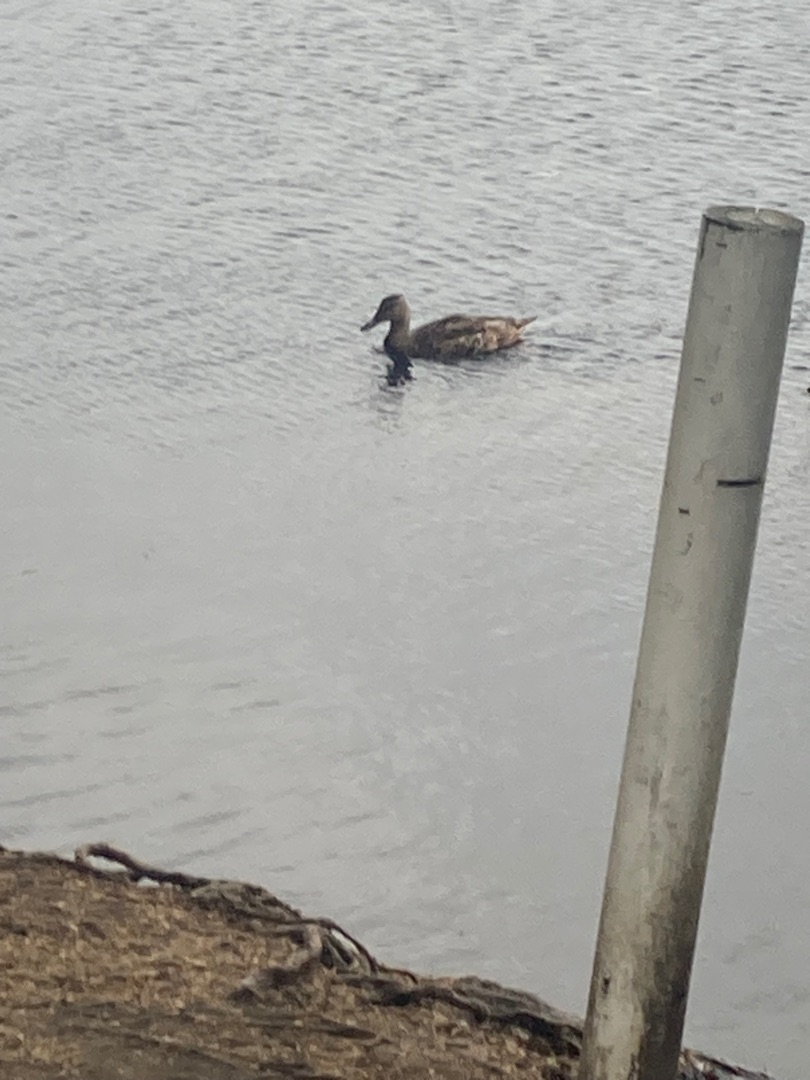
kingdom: Animalia
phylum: Chordata
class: Aves
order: Anseriformes
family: Anatidae
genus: Anas
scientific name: Anas platyrhynchos
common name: Gråand
